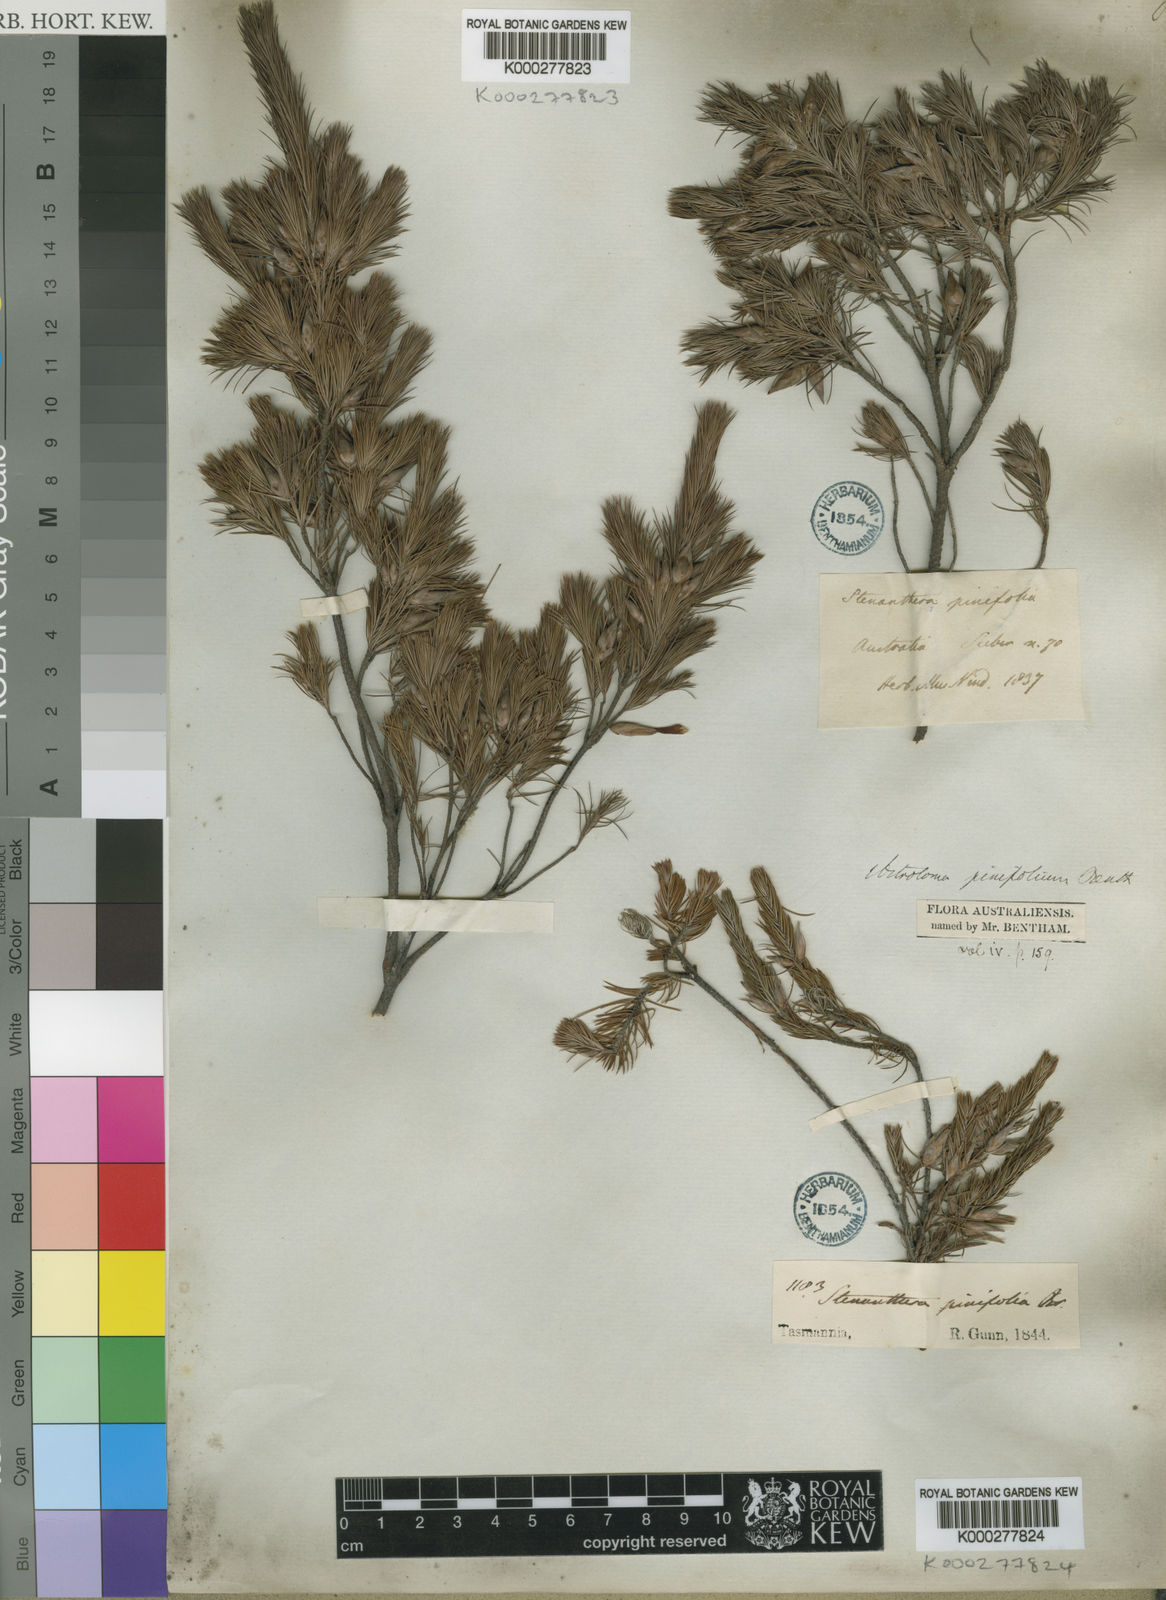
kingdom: Plantae
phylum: Tracheophyta
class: Magnoliopsida
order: Ericales
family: Ericaceae
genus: Stenanthera
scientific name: Stenanthera pinifolia
